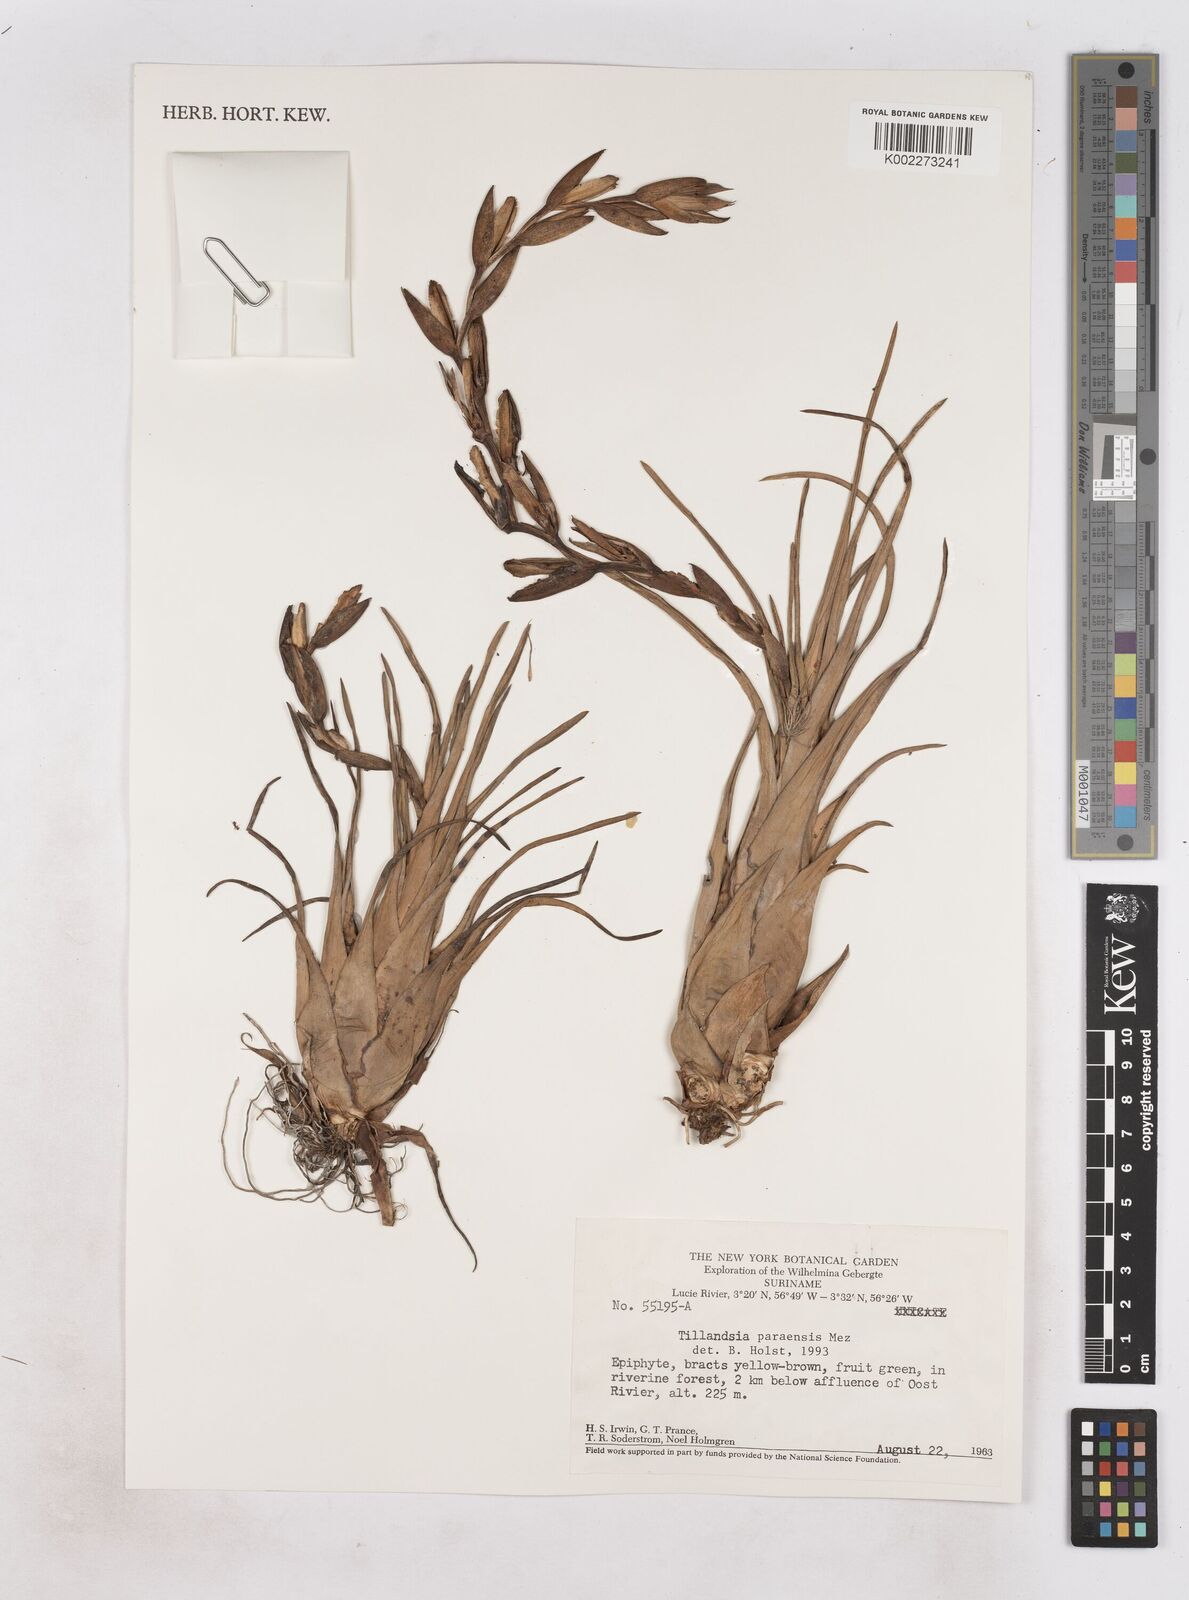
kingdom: Plantae
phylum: Tracheophyta
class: Liliopsida
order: Poales
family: Bromeliaceae
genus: Tillandsia
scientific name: Tillandsia paraensis
